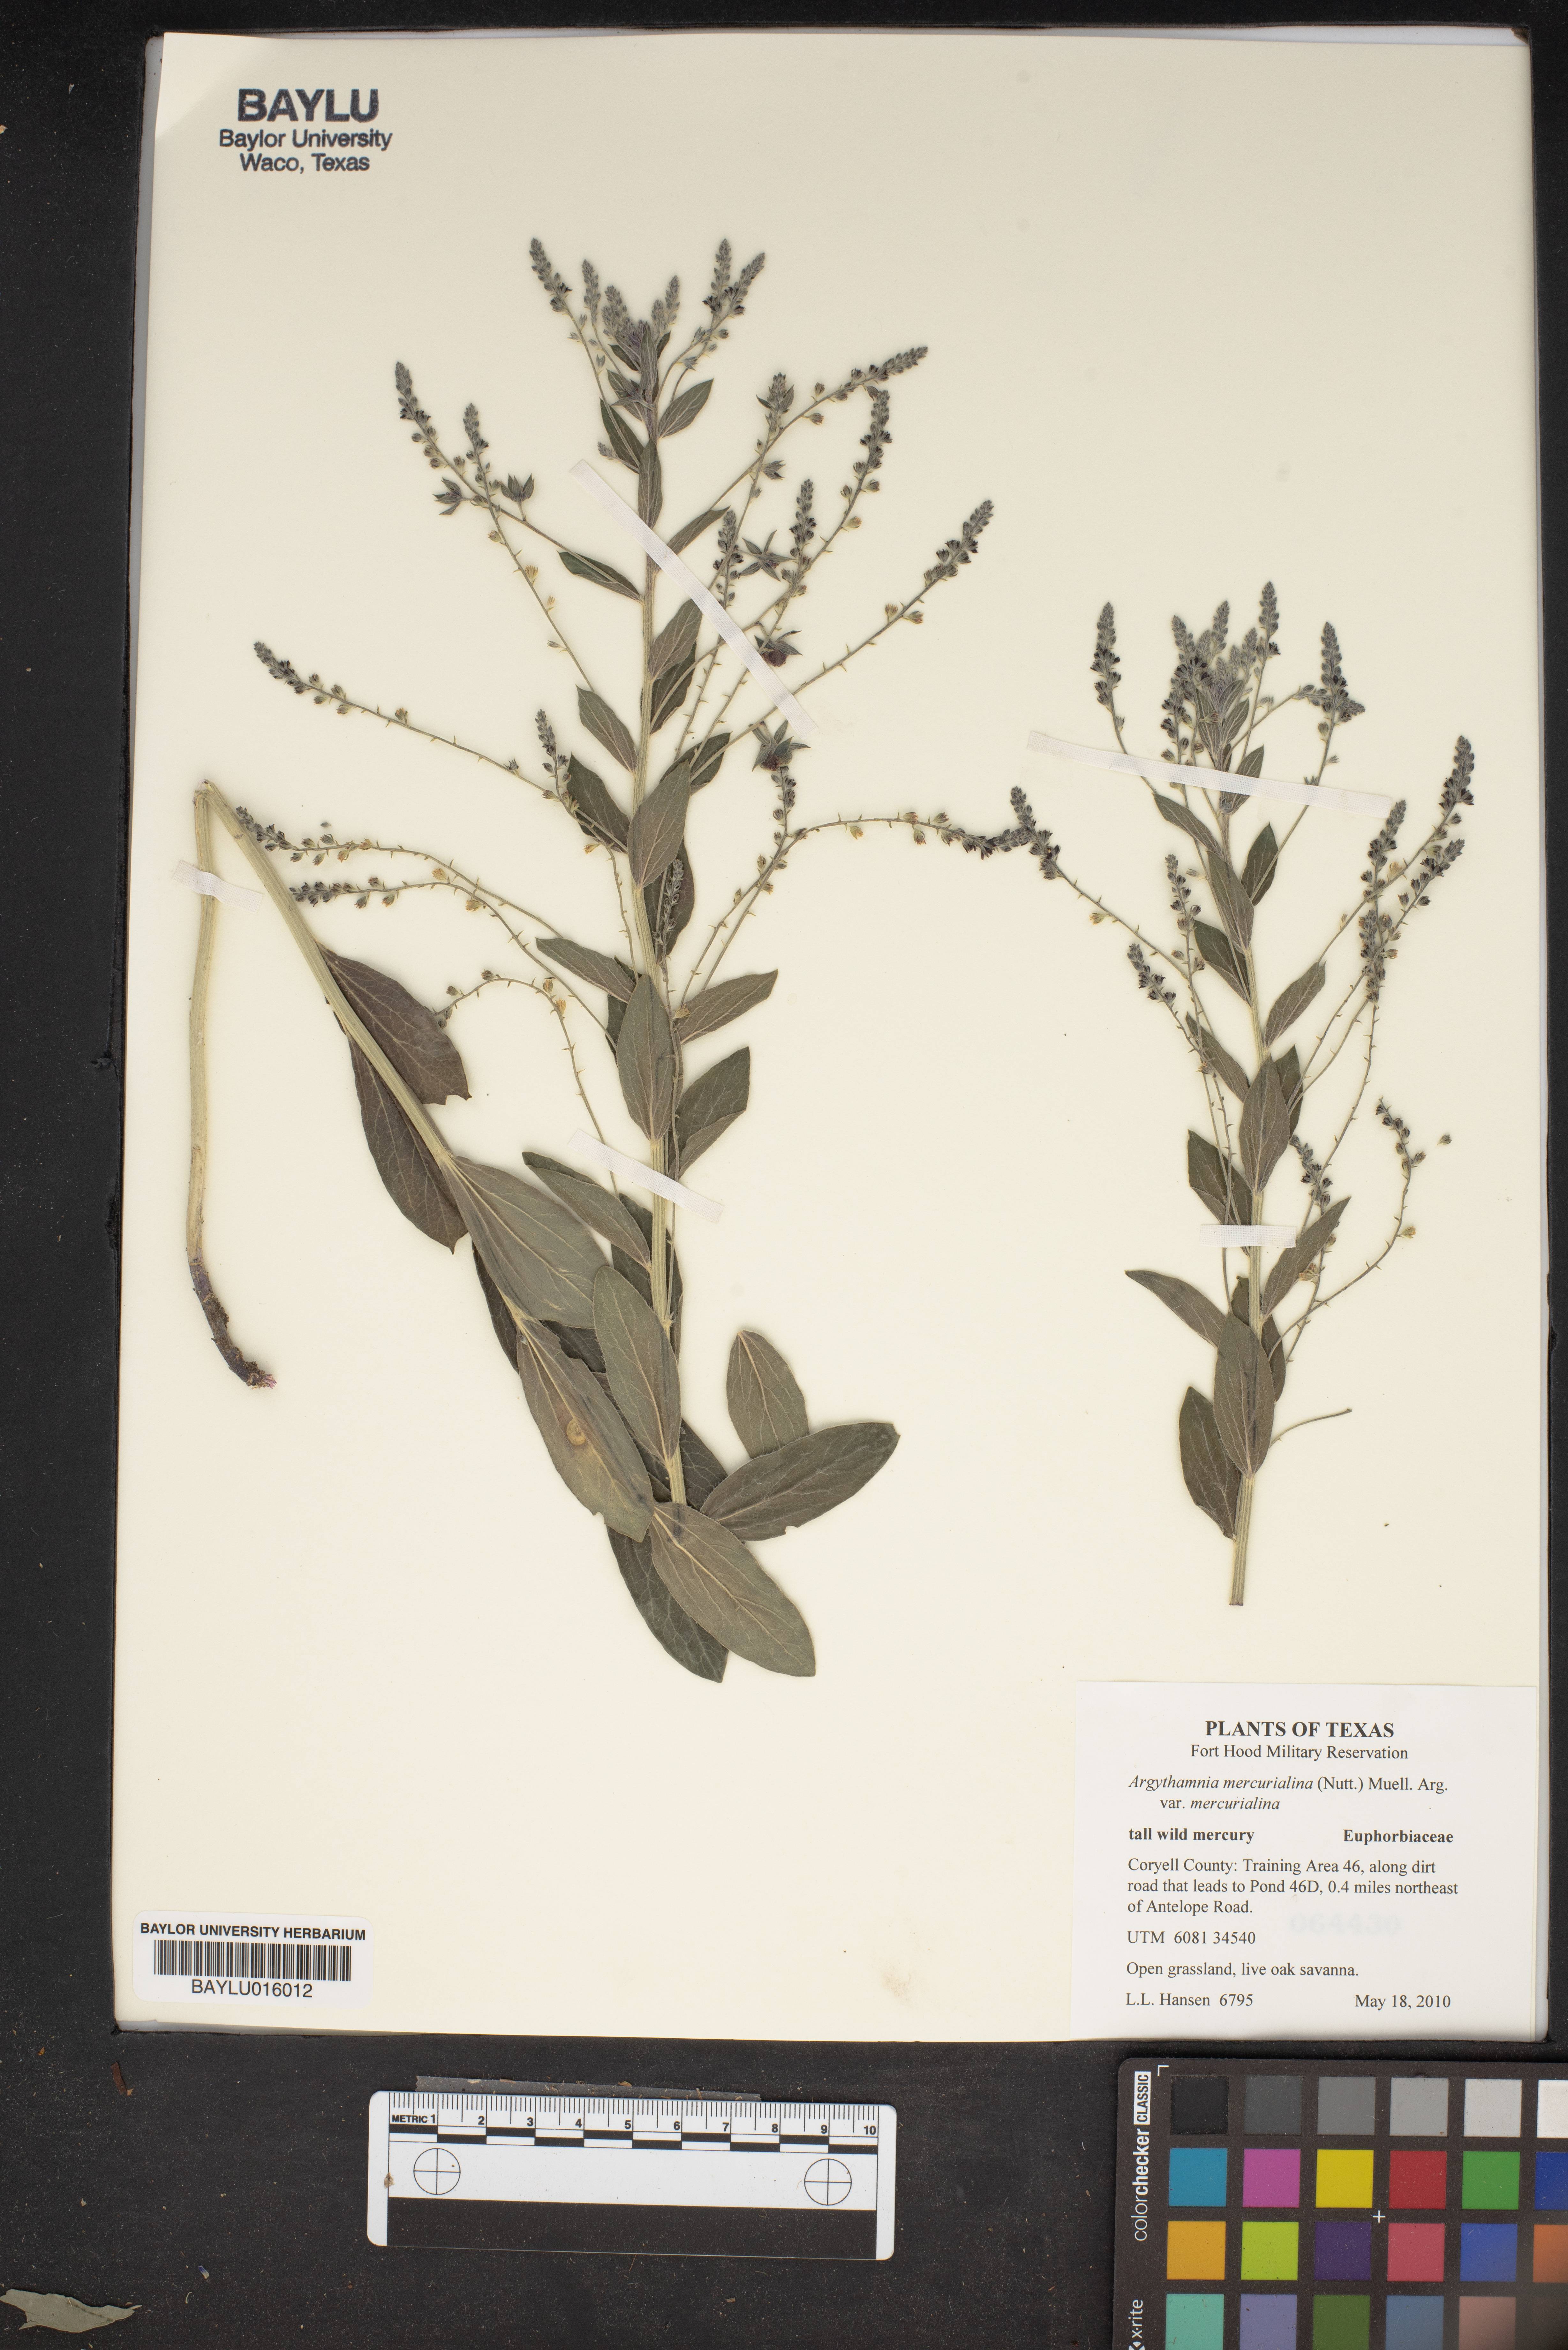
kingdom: Plantae
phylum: Tracheophyta
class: Magnoliopsida
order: Malpighiales
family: Euphorbiaceae
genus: Ditaxis
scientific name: Ditaxis mercurialina
